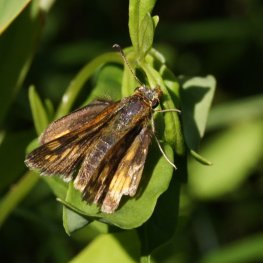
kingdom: Animalia
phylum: Arthropoda
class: Insecta
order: Lepidoptera
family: Hesperiidae
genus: Polites
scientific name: Polites coras
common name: Peck's Skipper
